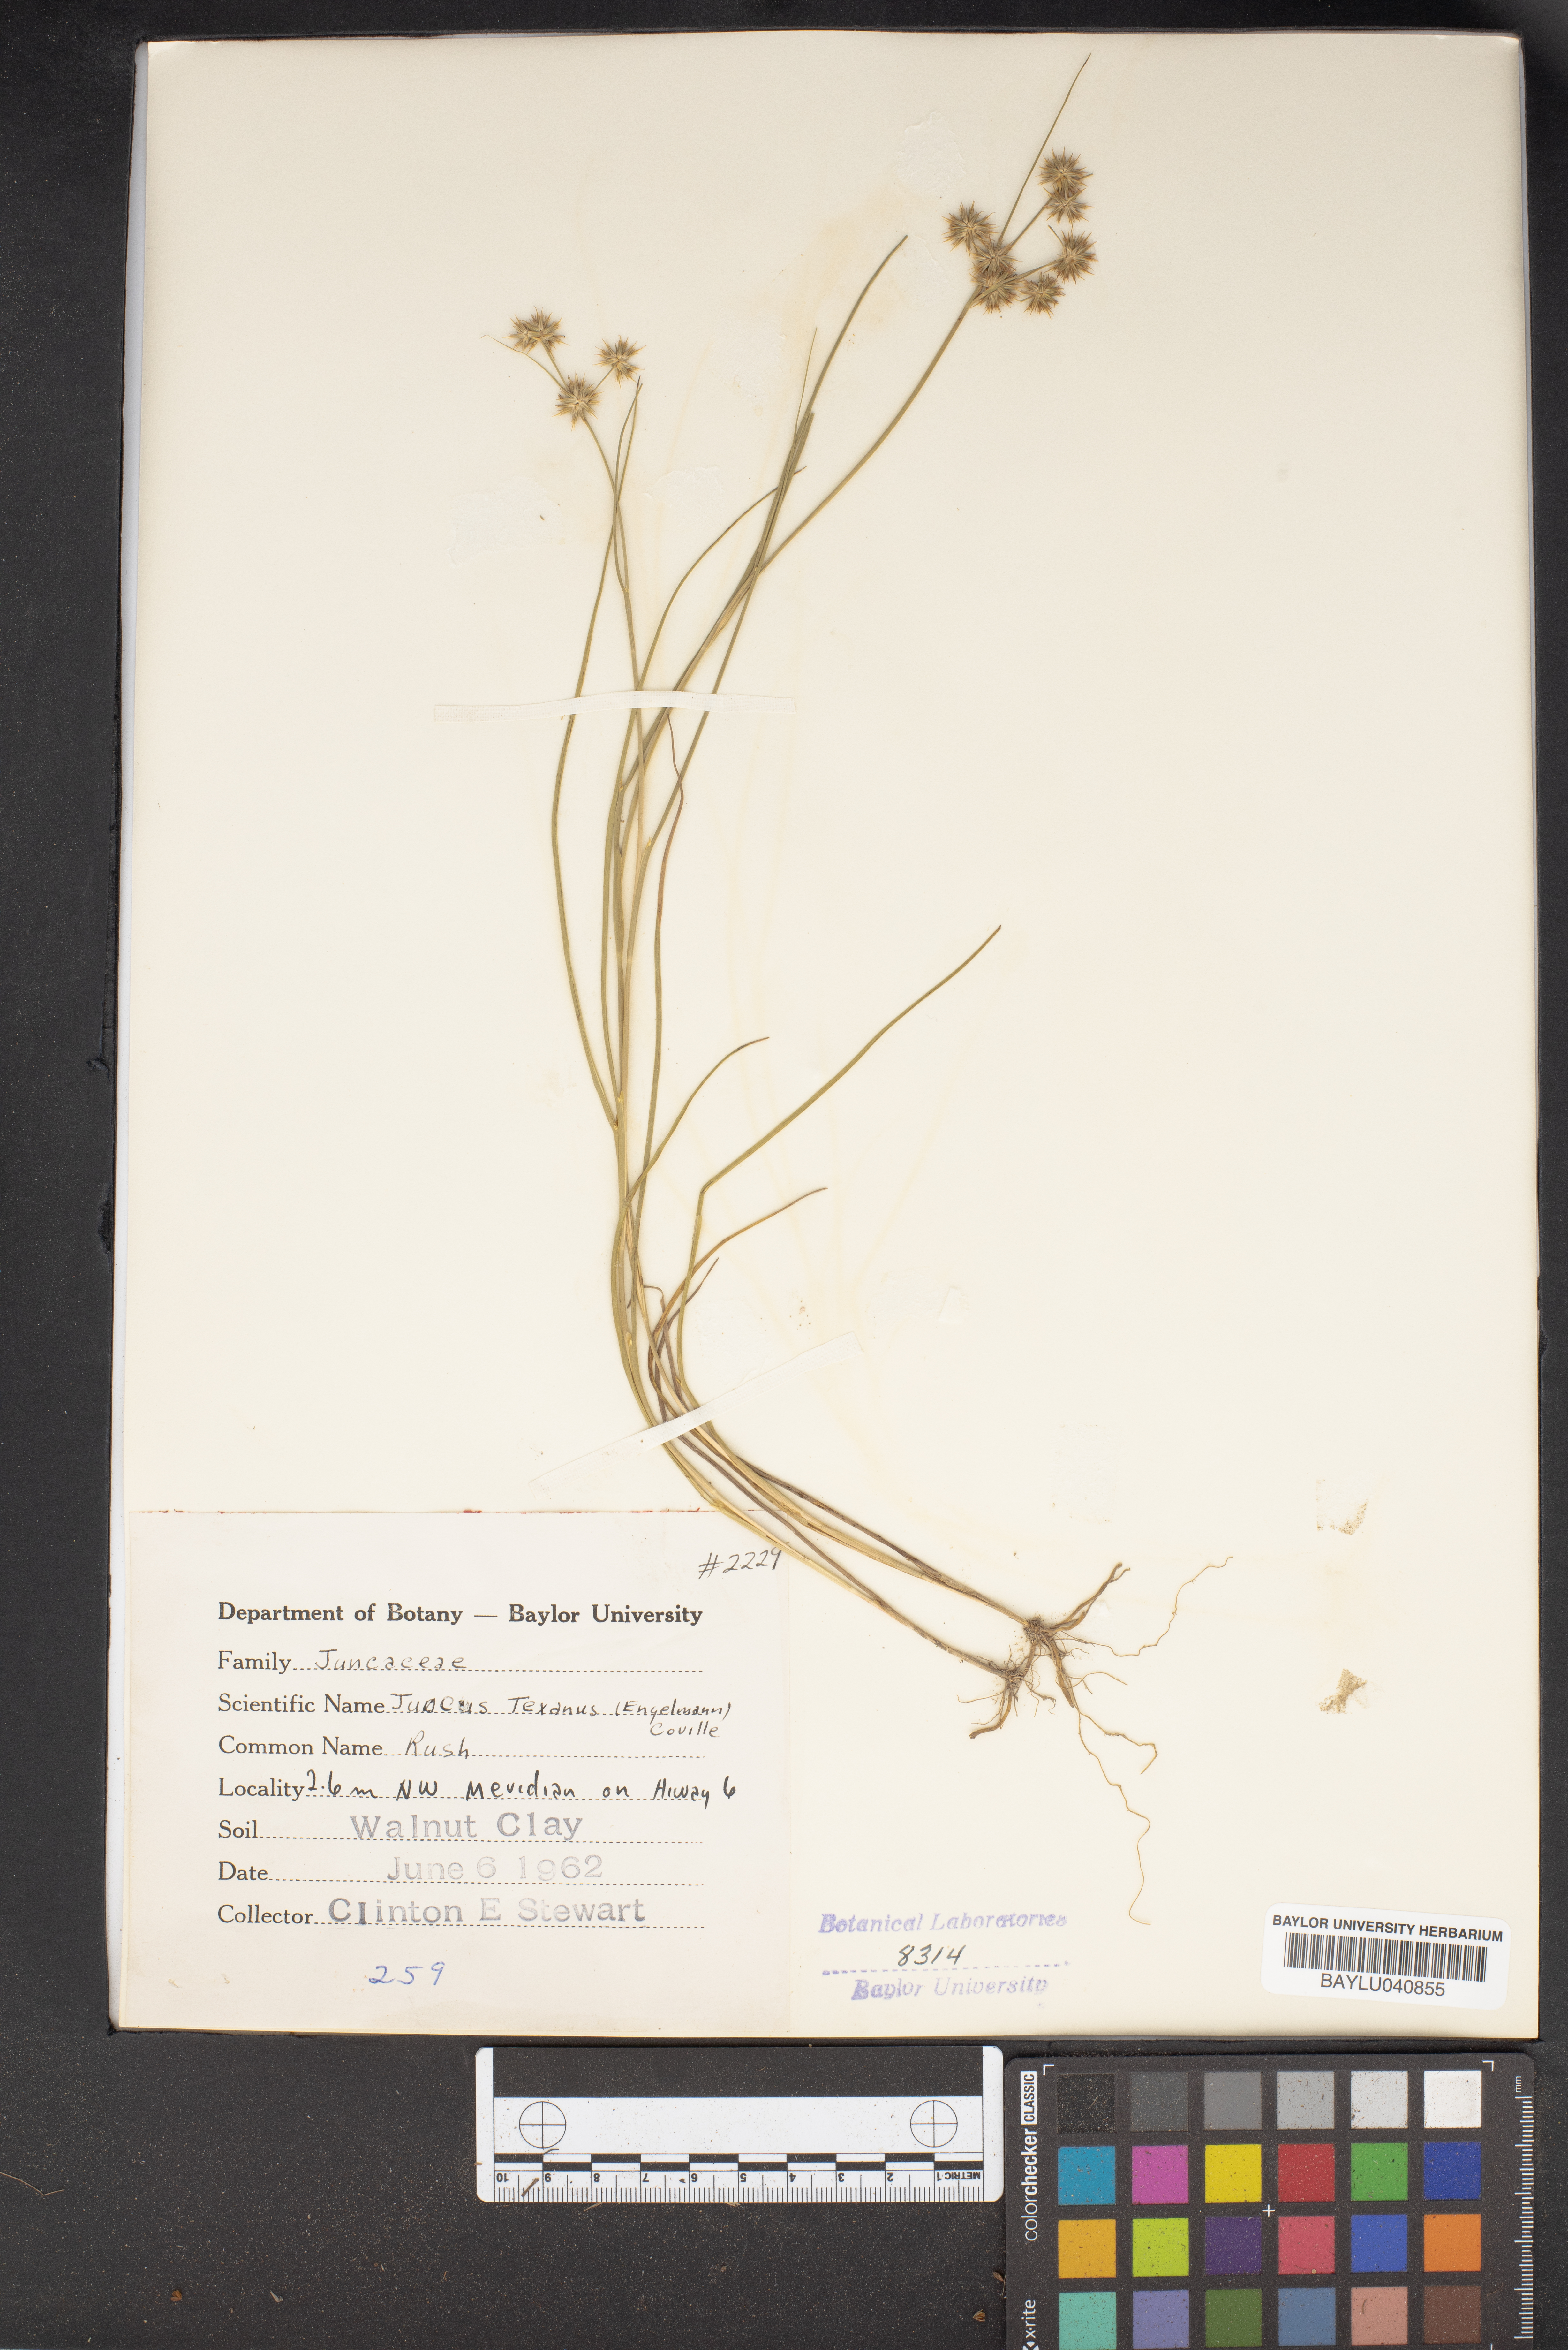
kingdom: Plantae
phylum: Tracheophyta
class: Liliopsida
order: Poales
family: Juncaceae
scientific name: Juncaceae
